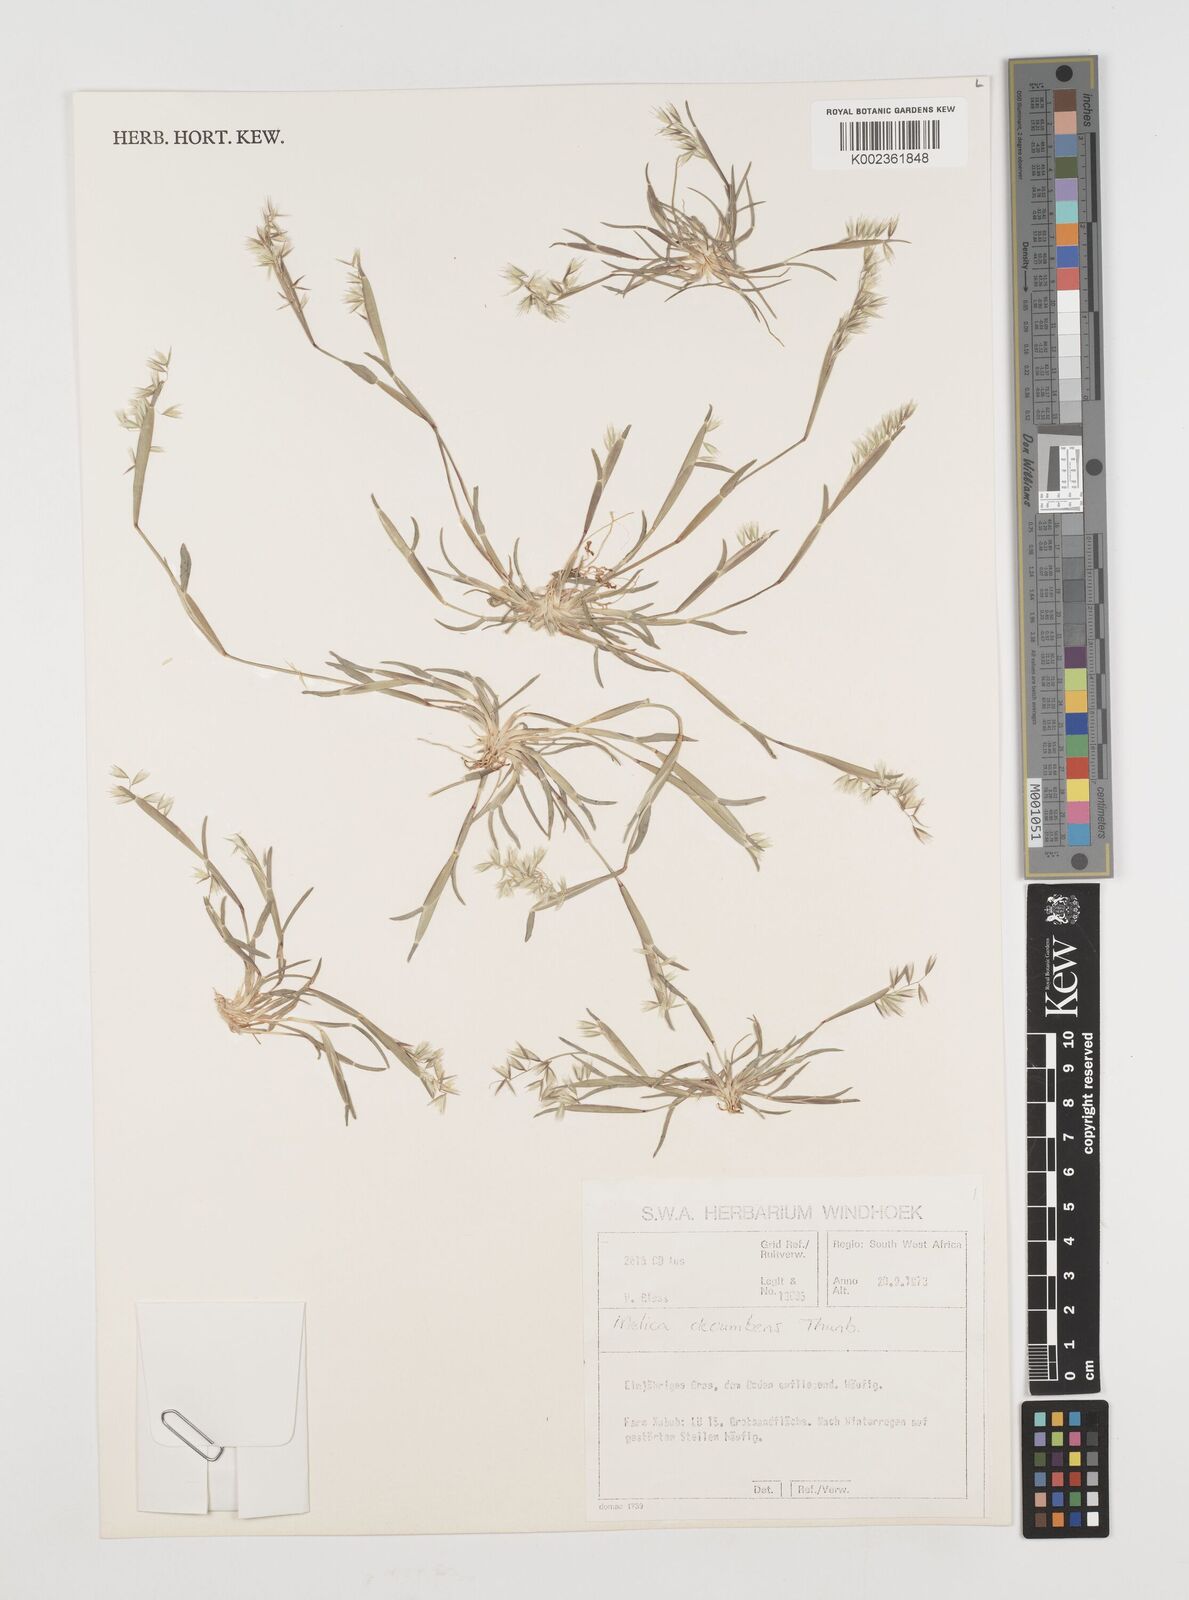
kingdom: Plantae
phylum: Tracheophyta
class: Liliopsida
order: Poales
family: Poaceae
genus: Ehrharta
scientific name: Ehrharta pusilla
